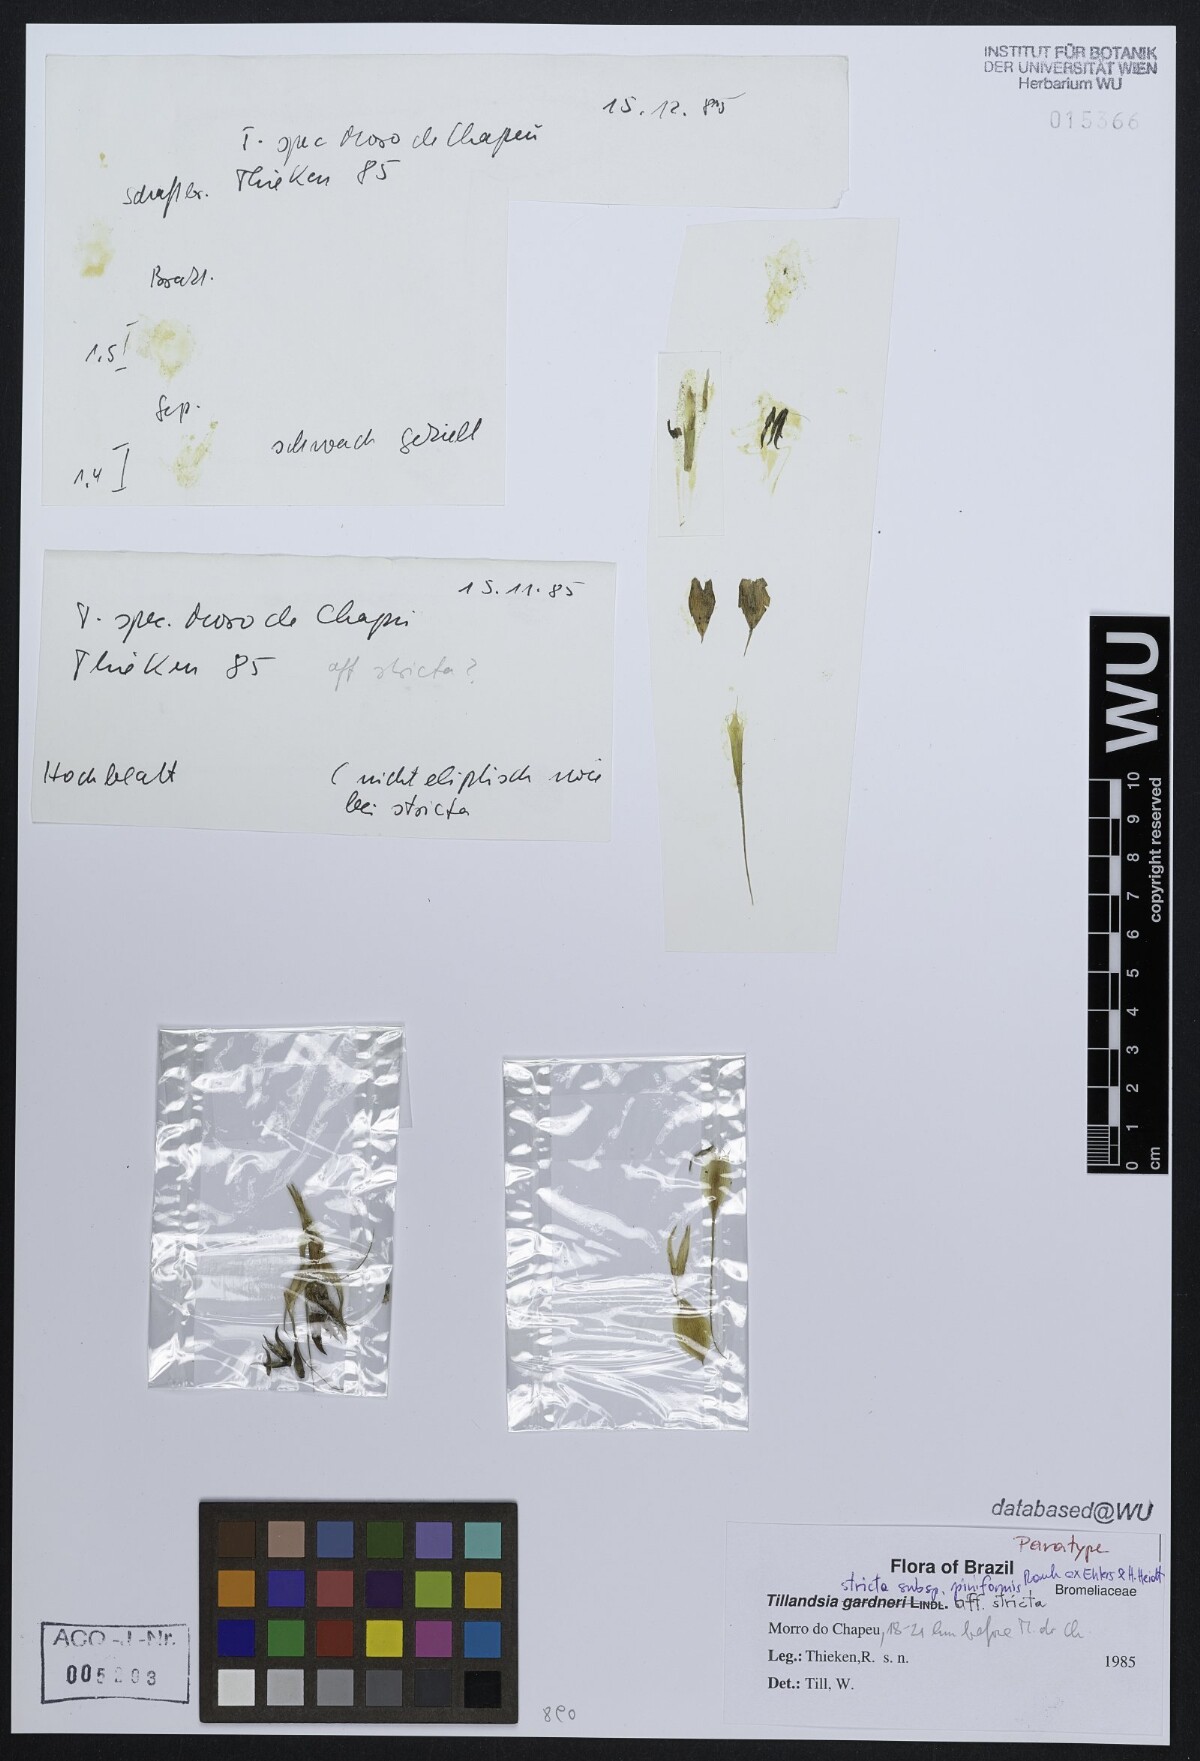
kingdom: Plantae
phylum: Tracheophyta
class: Liliopsida
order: Poales
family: Bromeliaceae
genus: Tillandsia
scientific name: Tillandsia stricta
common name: Airplant
